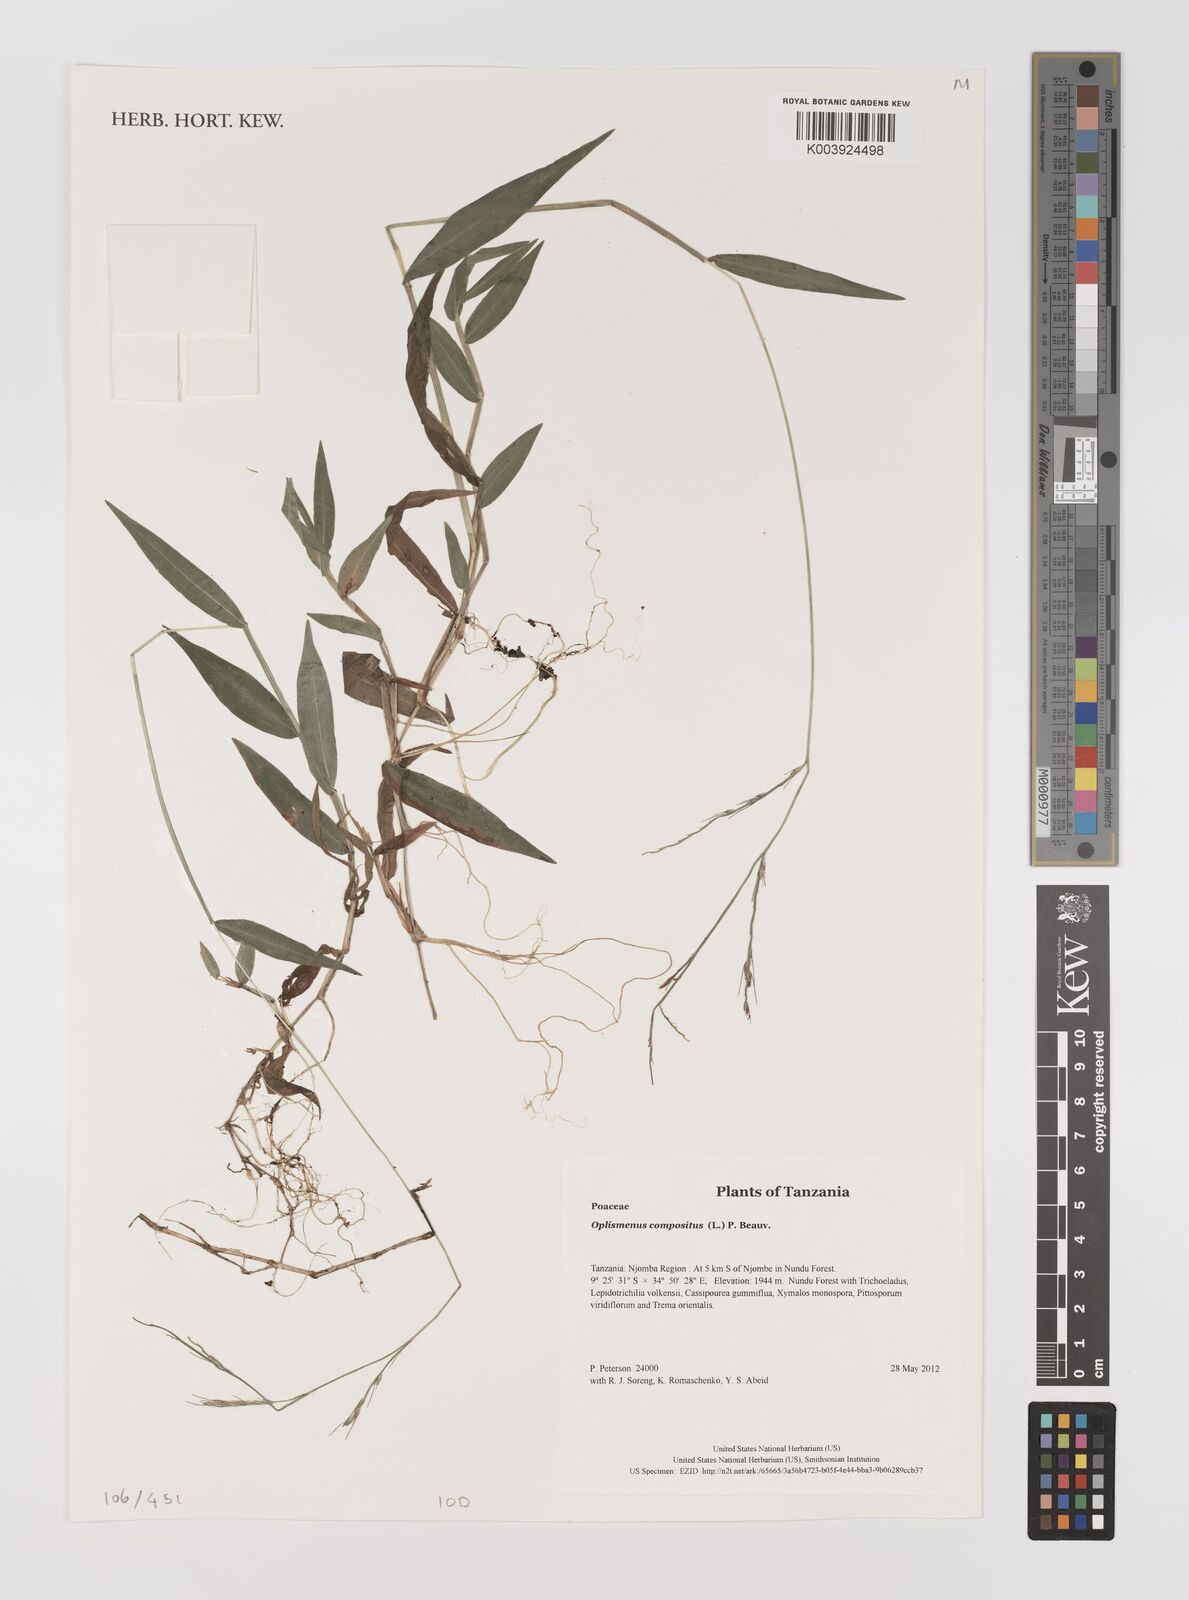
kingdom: Plantae
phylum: Tracheophyta
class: Liliopsida
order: Poales
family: Poaceae
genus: Oplismenus
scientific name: Oplismenus compositus
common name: Running mountain grass
